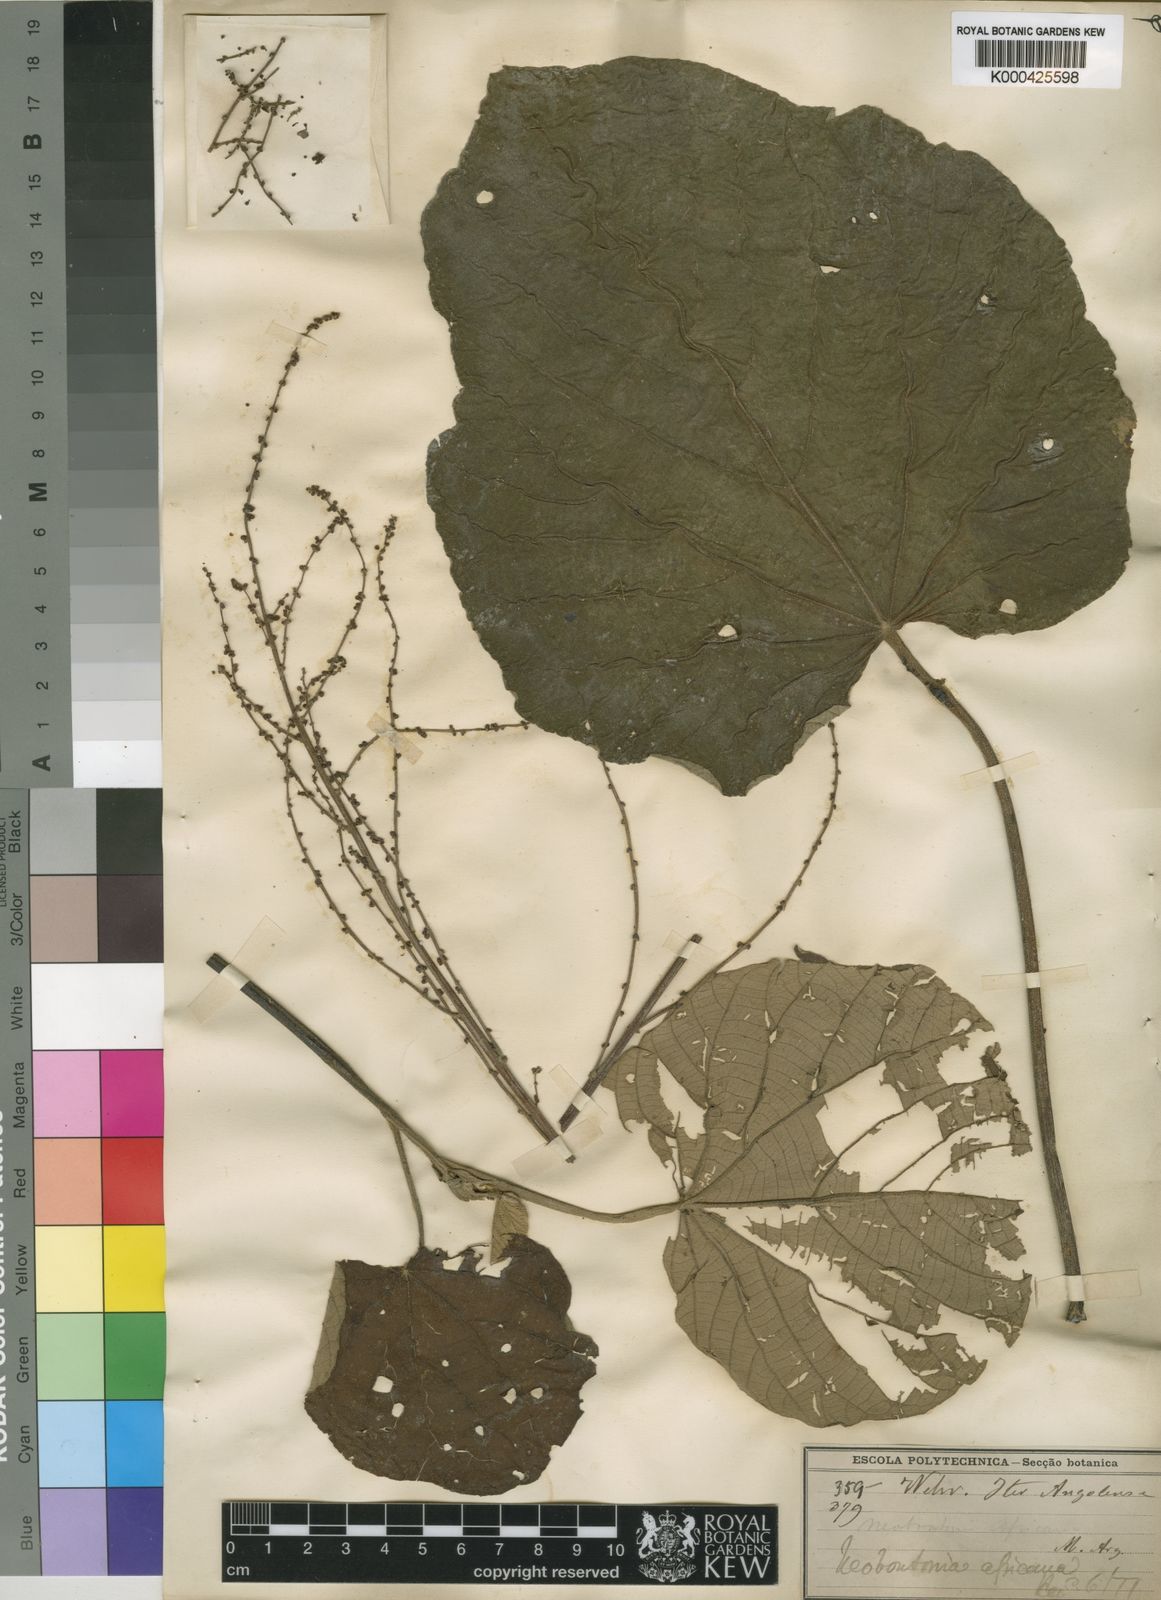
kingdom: Plantae
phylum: Tracheophyta
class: Magnoliopsida
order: Malpighiales
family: Euphorbiaceae
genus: Neoboutonia
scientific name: Neoboutonia
